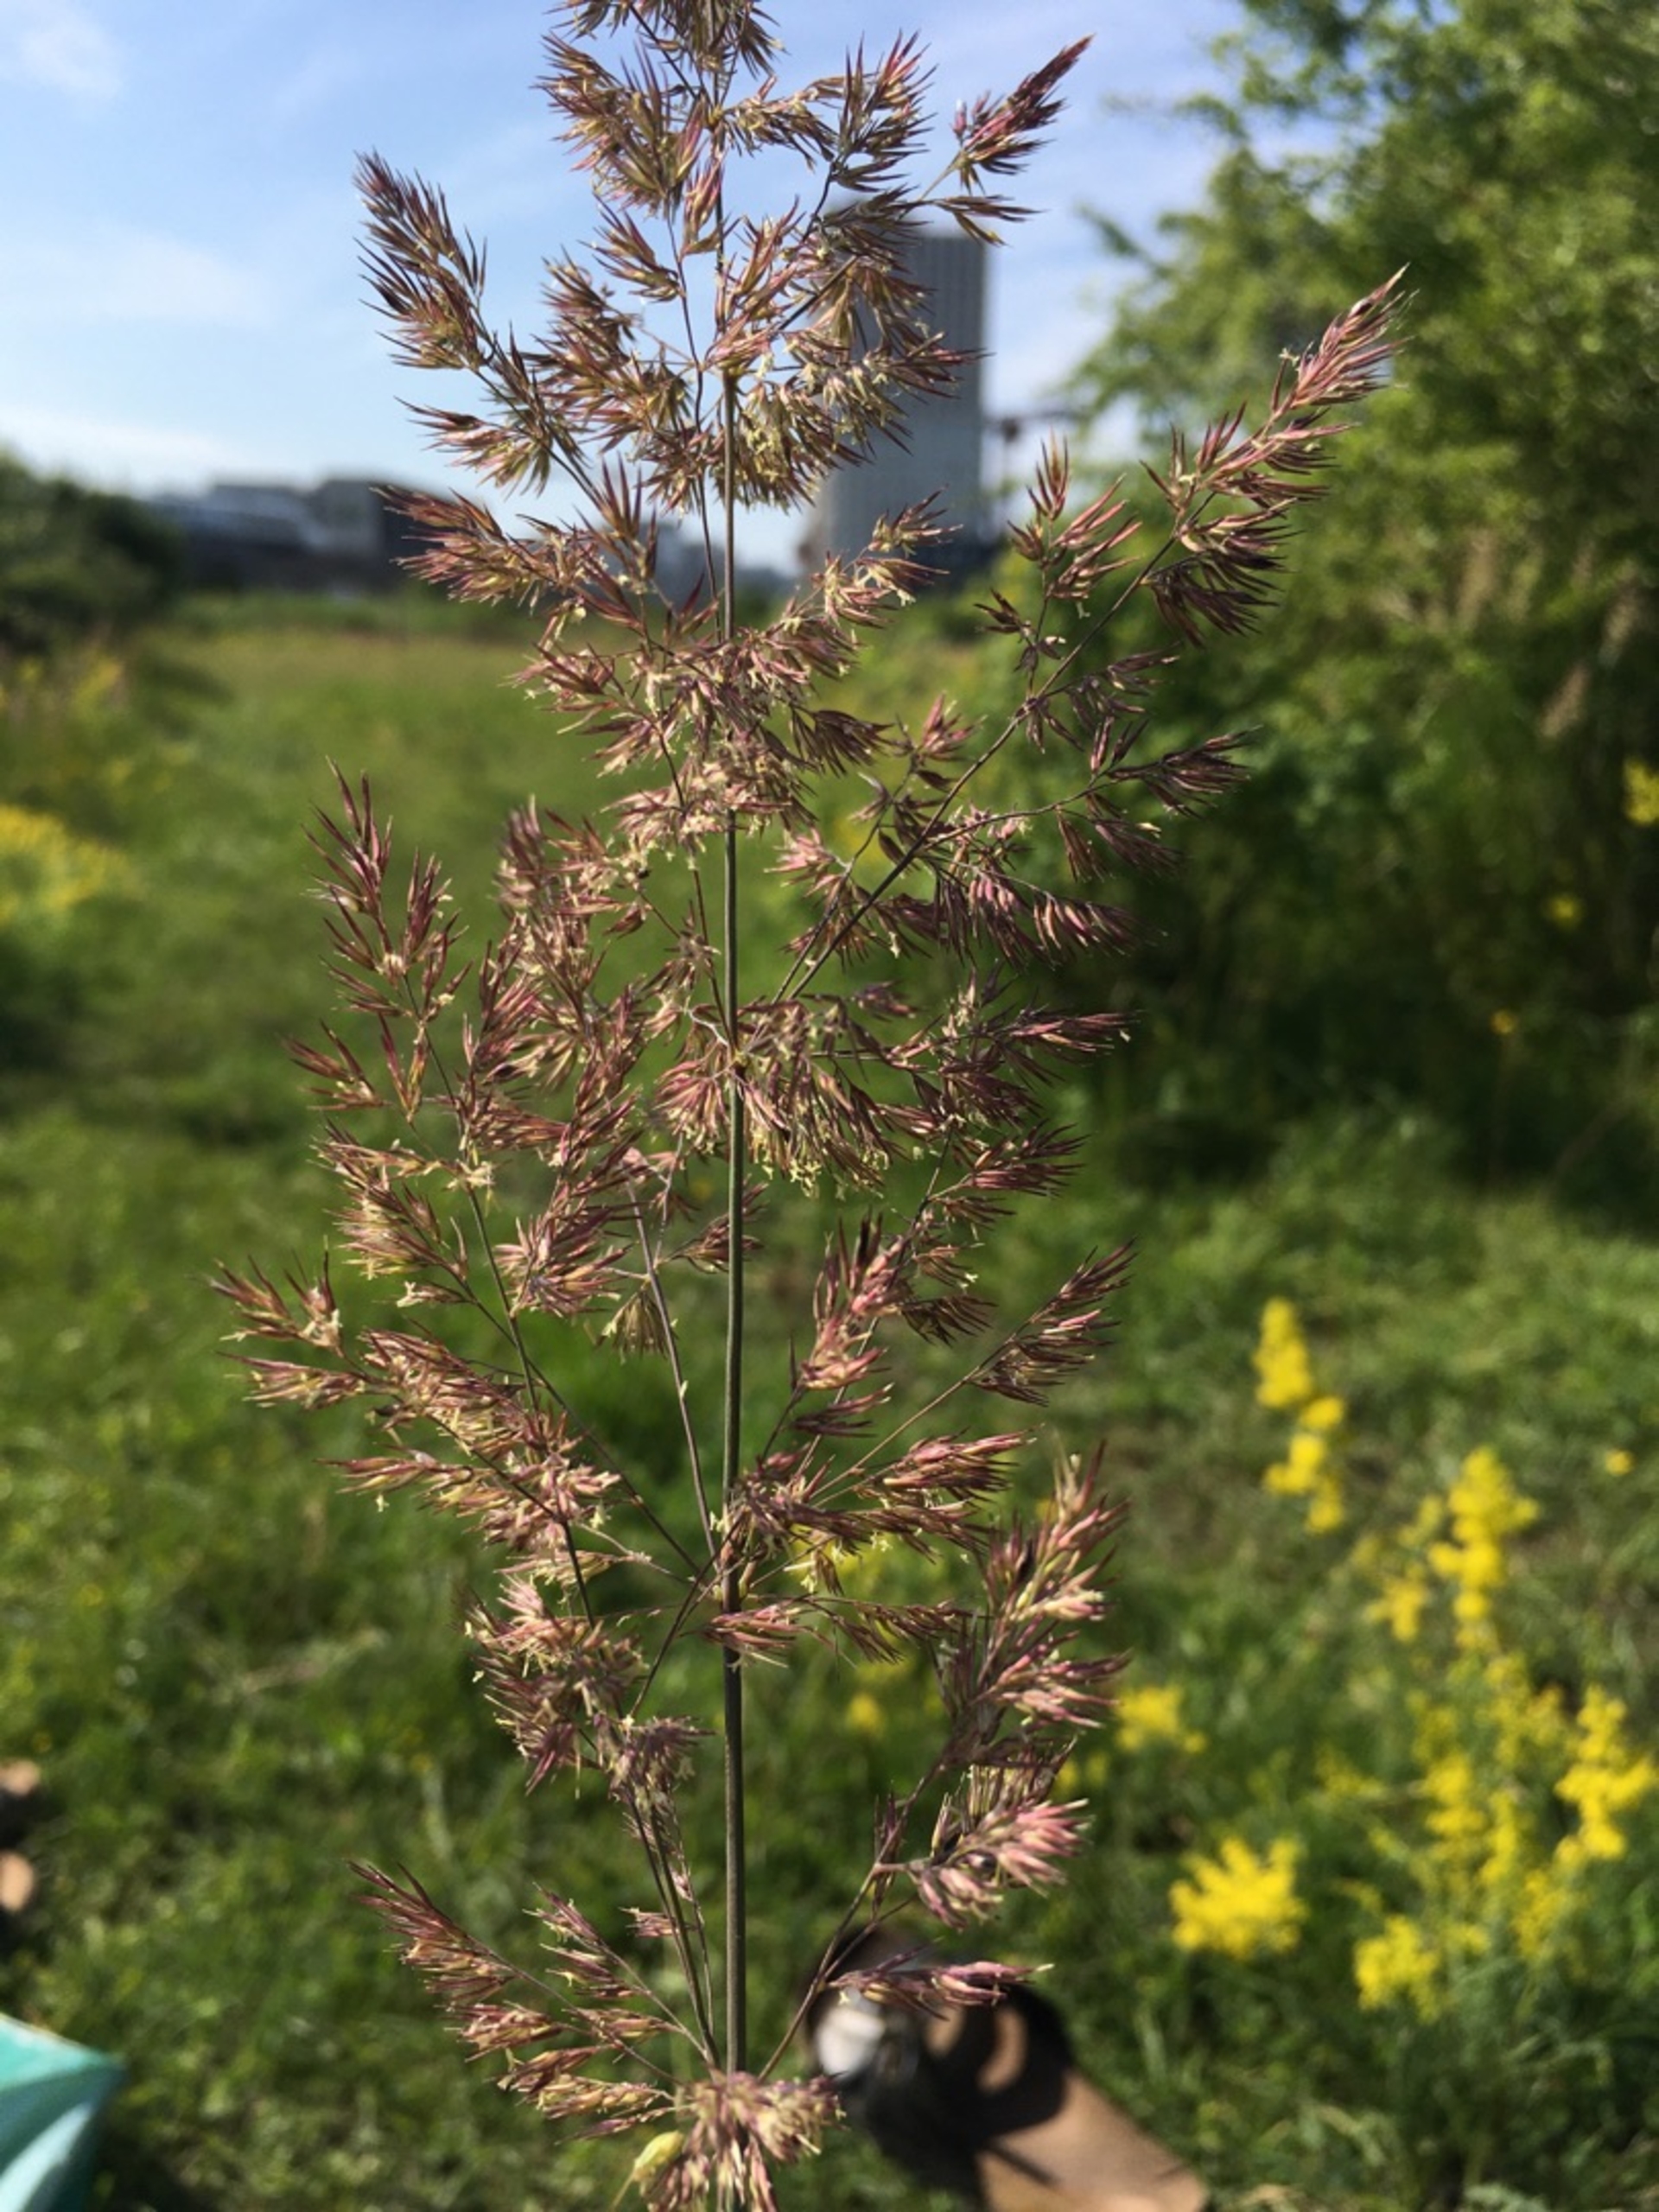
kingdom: Plantae
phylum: Tracheophyta
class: Liliopsida
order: Poales
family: Poaceae
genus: Calamagrostis
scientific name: Calamagrostis epigejos
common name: Bjerg-rørhvene
